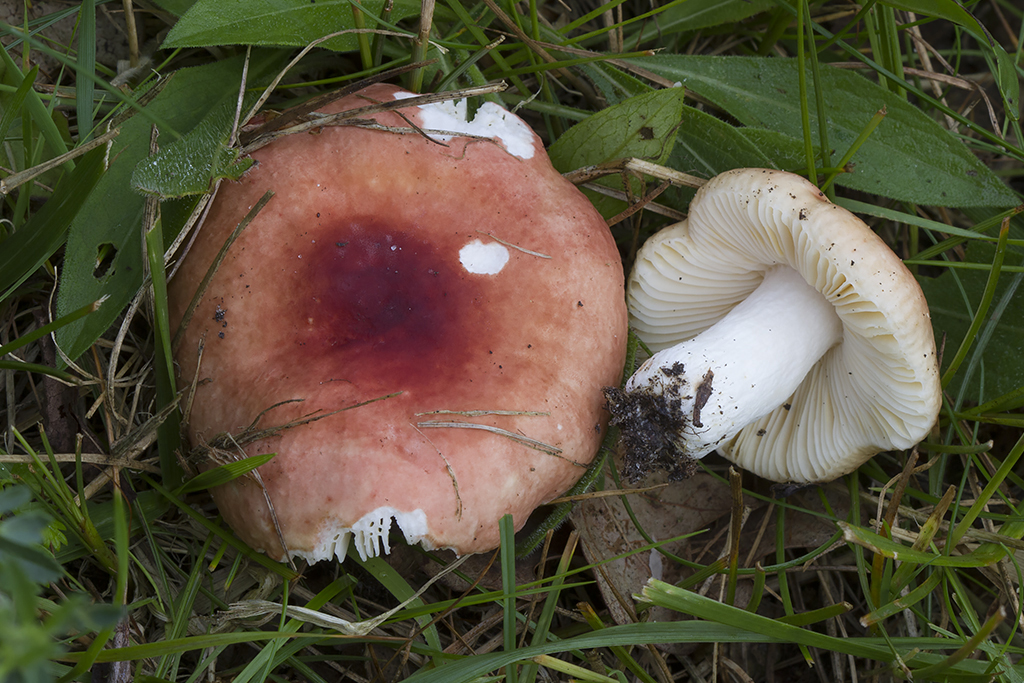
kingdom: Fungi
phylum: Basidiomycota
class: Agaricomycetes
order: Russulales
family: Russulaceae
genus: Russula
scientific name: Russula fontqueri
